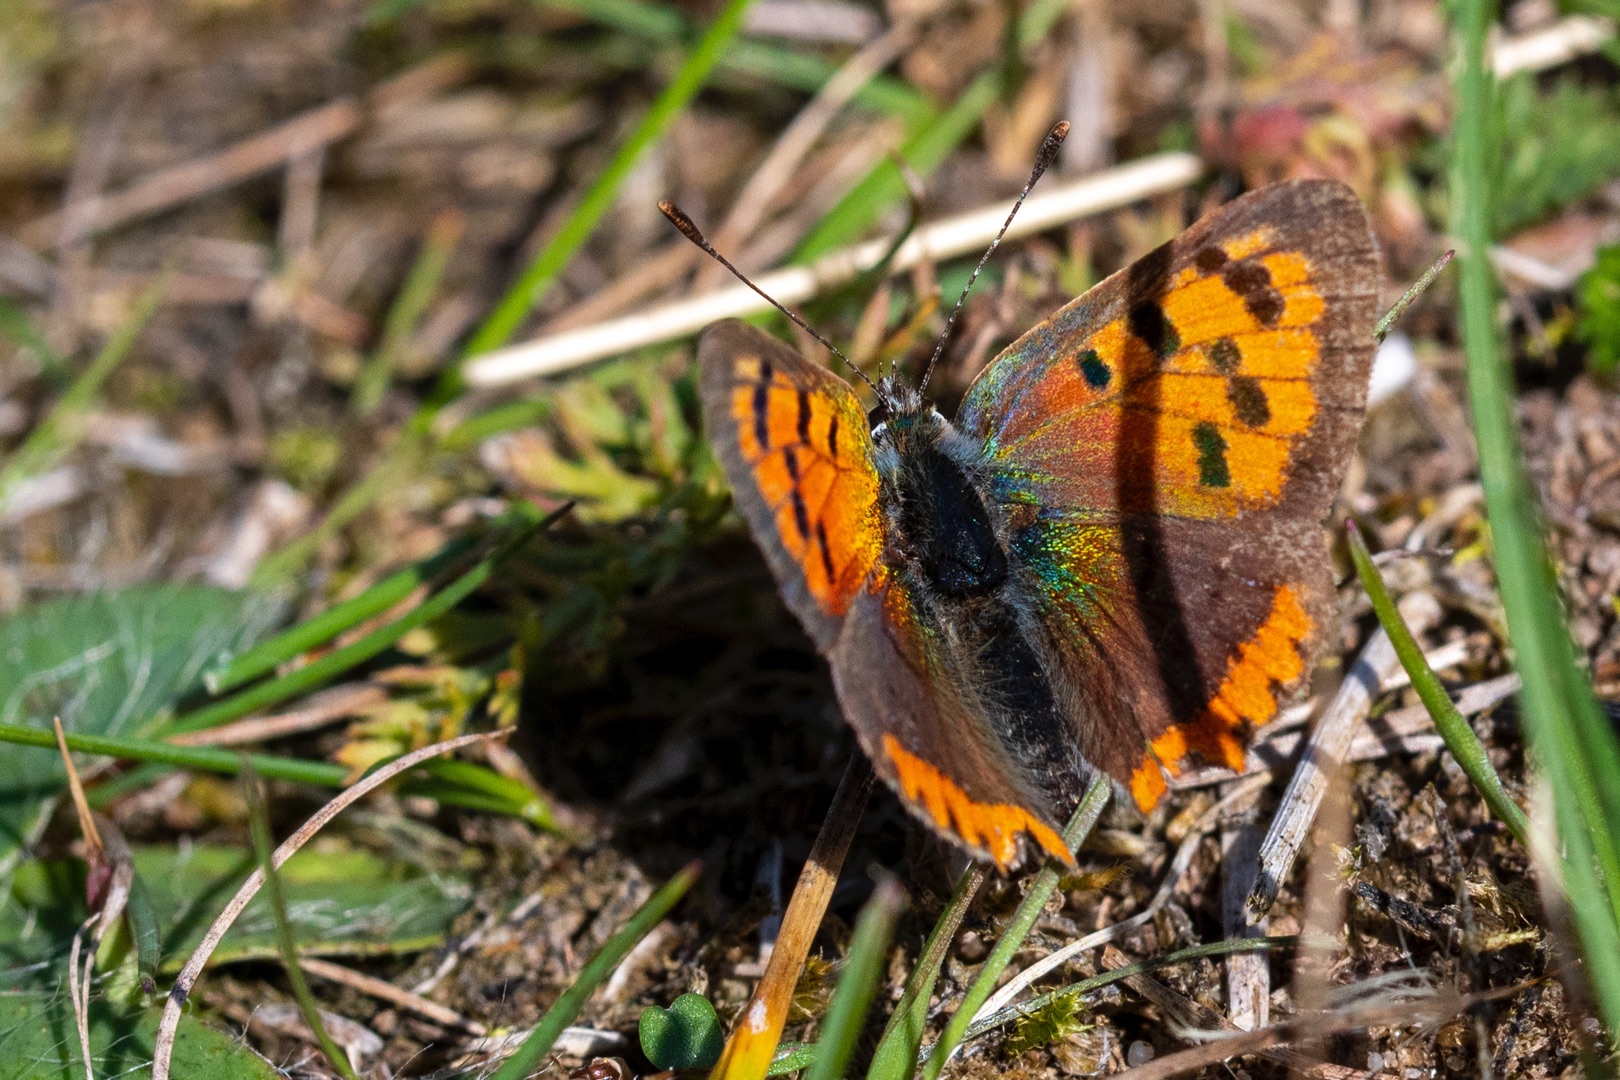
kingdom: Animalia
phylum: Arthropoda
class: Insecta
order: Lepidoptera
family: Lycaenidae
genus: Lycaena
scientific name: Lycaena phlaeas
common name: Lille ildfugl
